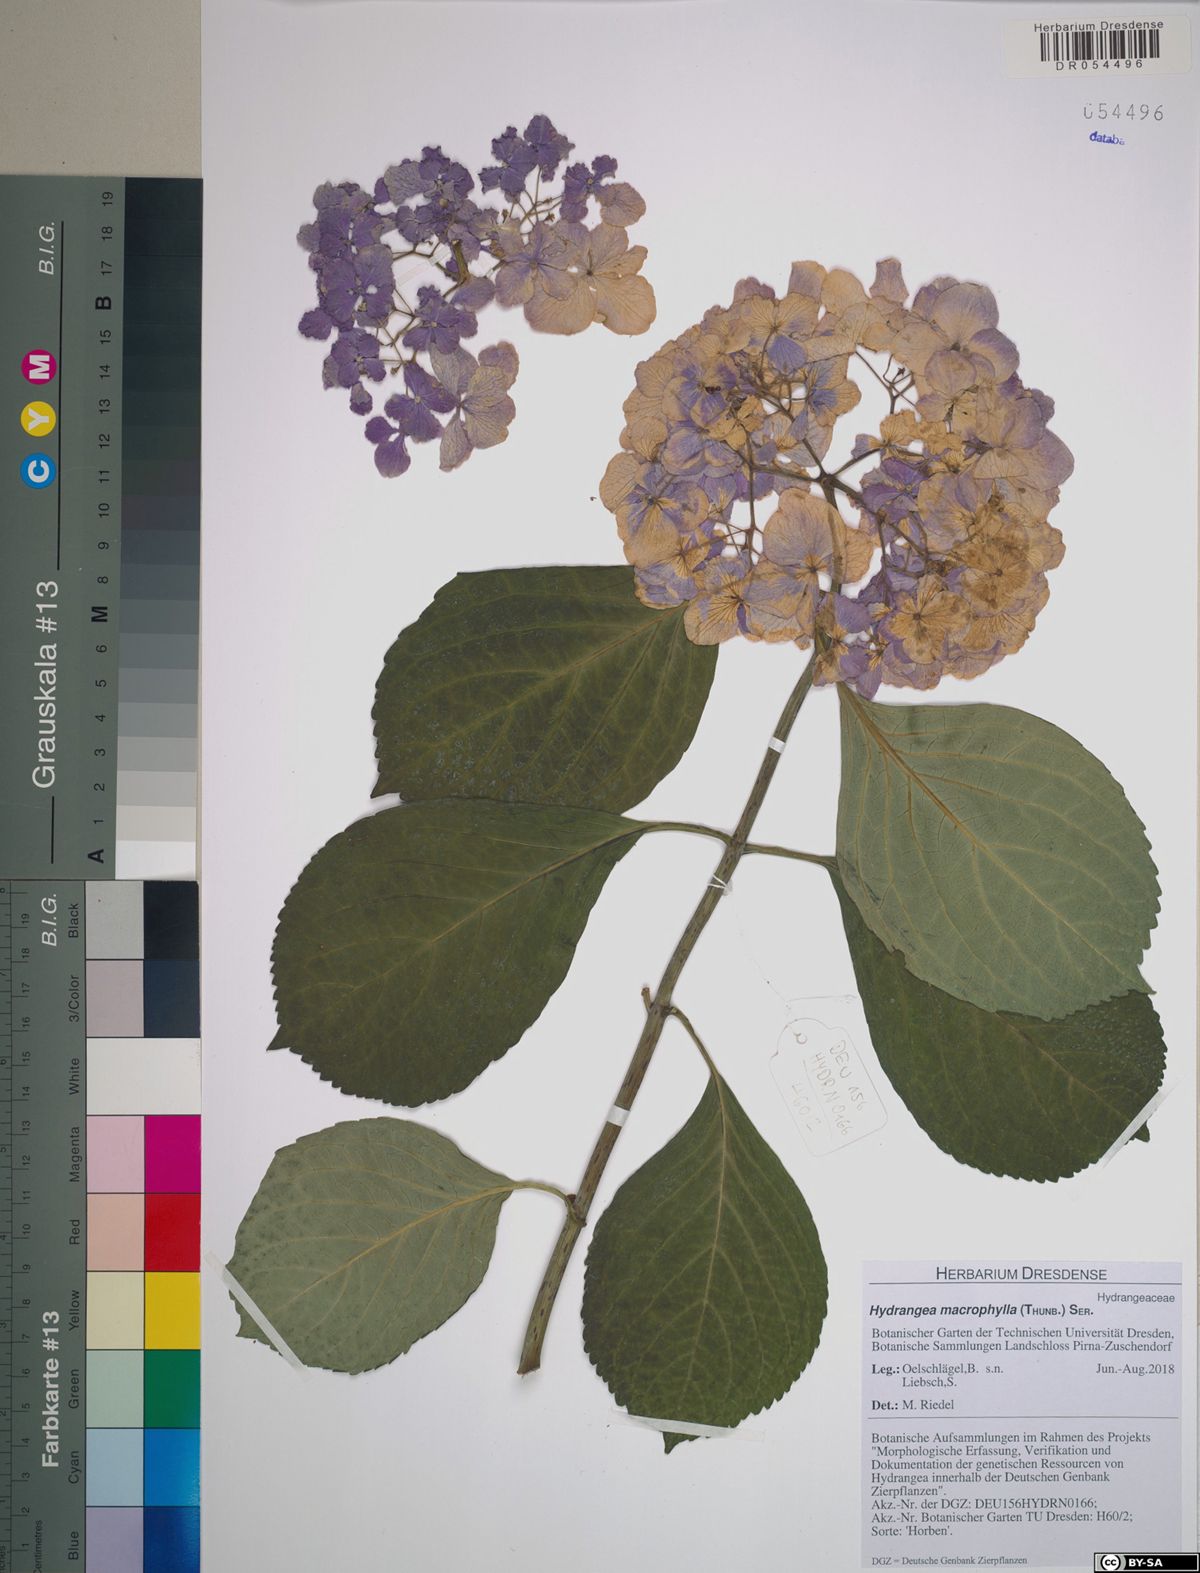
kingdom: Plantae
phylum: Tracheophyta
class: Magnoliopsida
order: Cornales
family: Hydrangeaceae
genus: Hydrangea
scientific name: Hydrangea macrophylla
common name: Hydrangea
